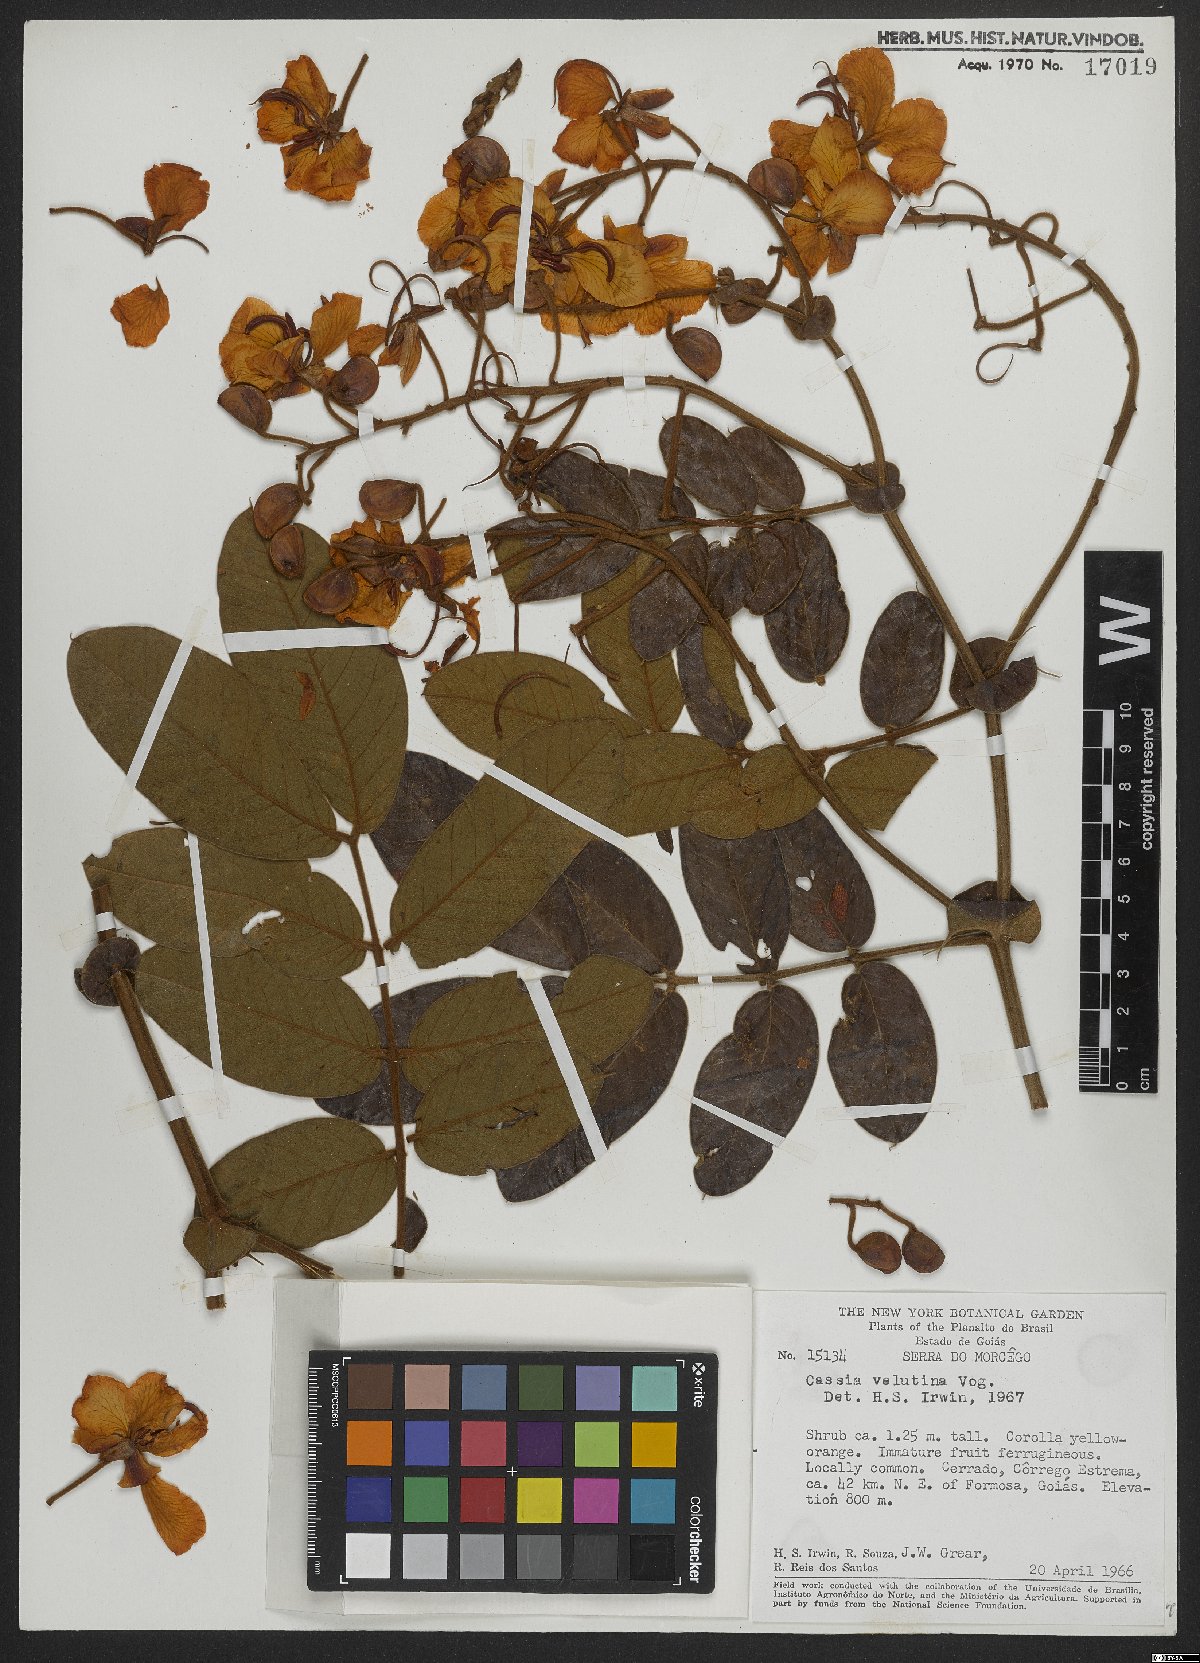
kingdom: Plantae
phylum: Tracheophyta
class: Magnoliopsida
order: Fabales
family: Fabaceae
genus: Senna
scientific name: Senna velutina
